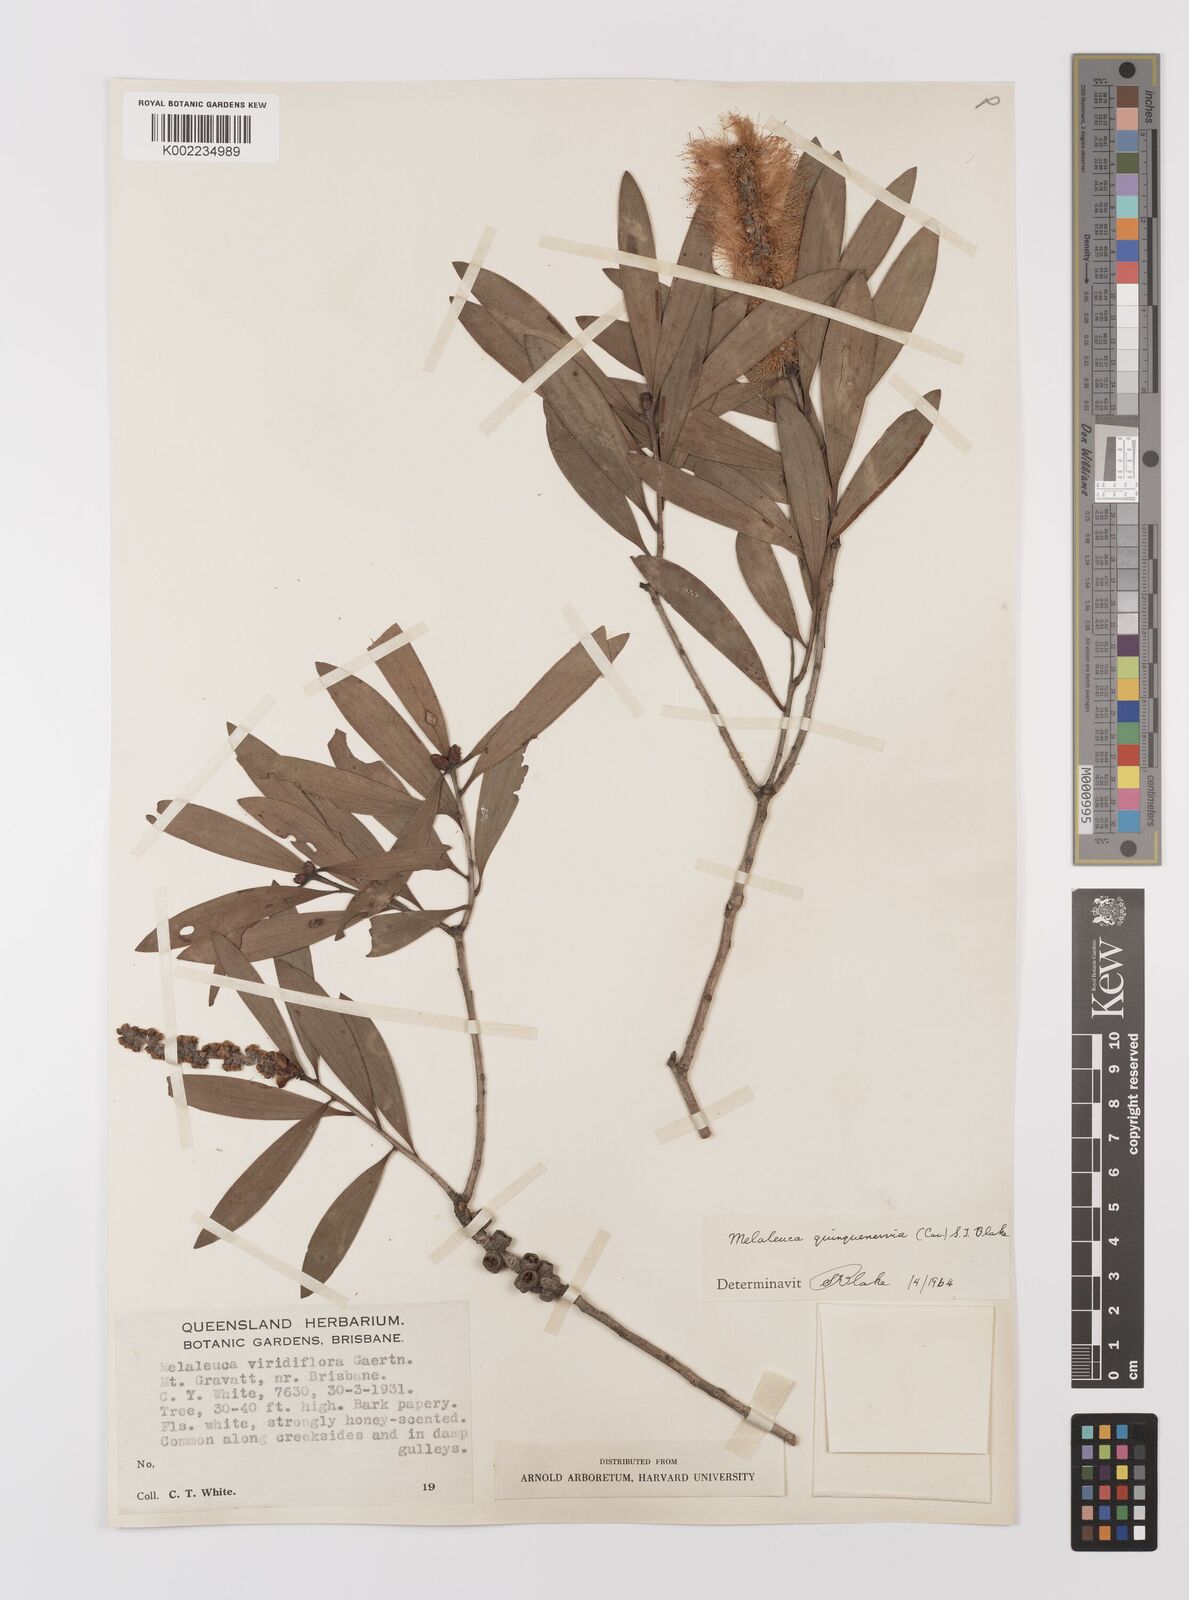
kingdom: Plantae
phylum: Tracheophyta
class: Magnoliopsida
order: Myrtales
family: Myrtaceae
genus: Melaleuca
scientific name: Melaleuca quinquenervia
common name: Punktree
